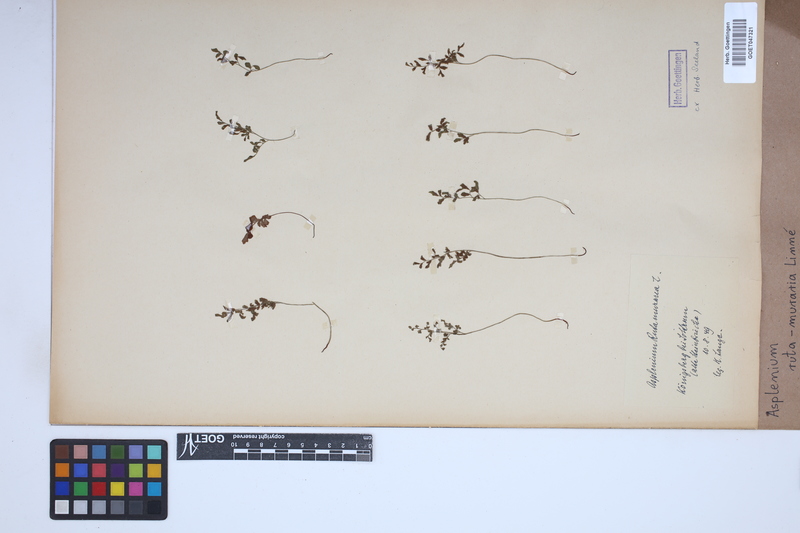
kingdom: Plantae
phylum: Tracheophyta
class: Polypodiopsida
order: Polypodiales
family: Aspleniaceae
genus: Asplenium
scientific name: Asplenium ruta-muraria
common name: Wall-rue
